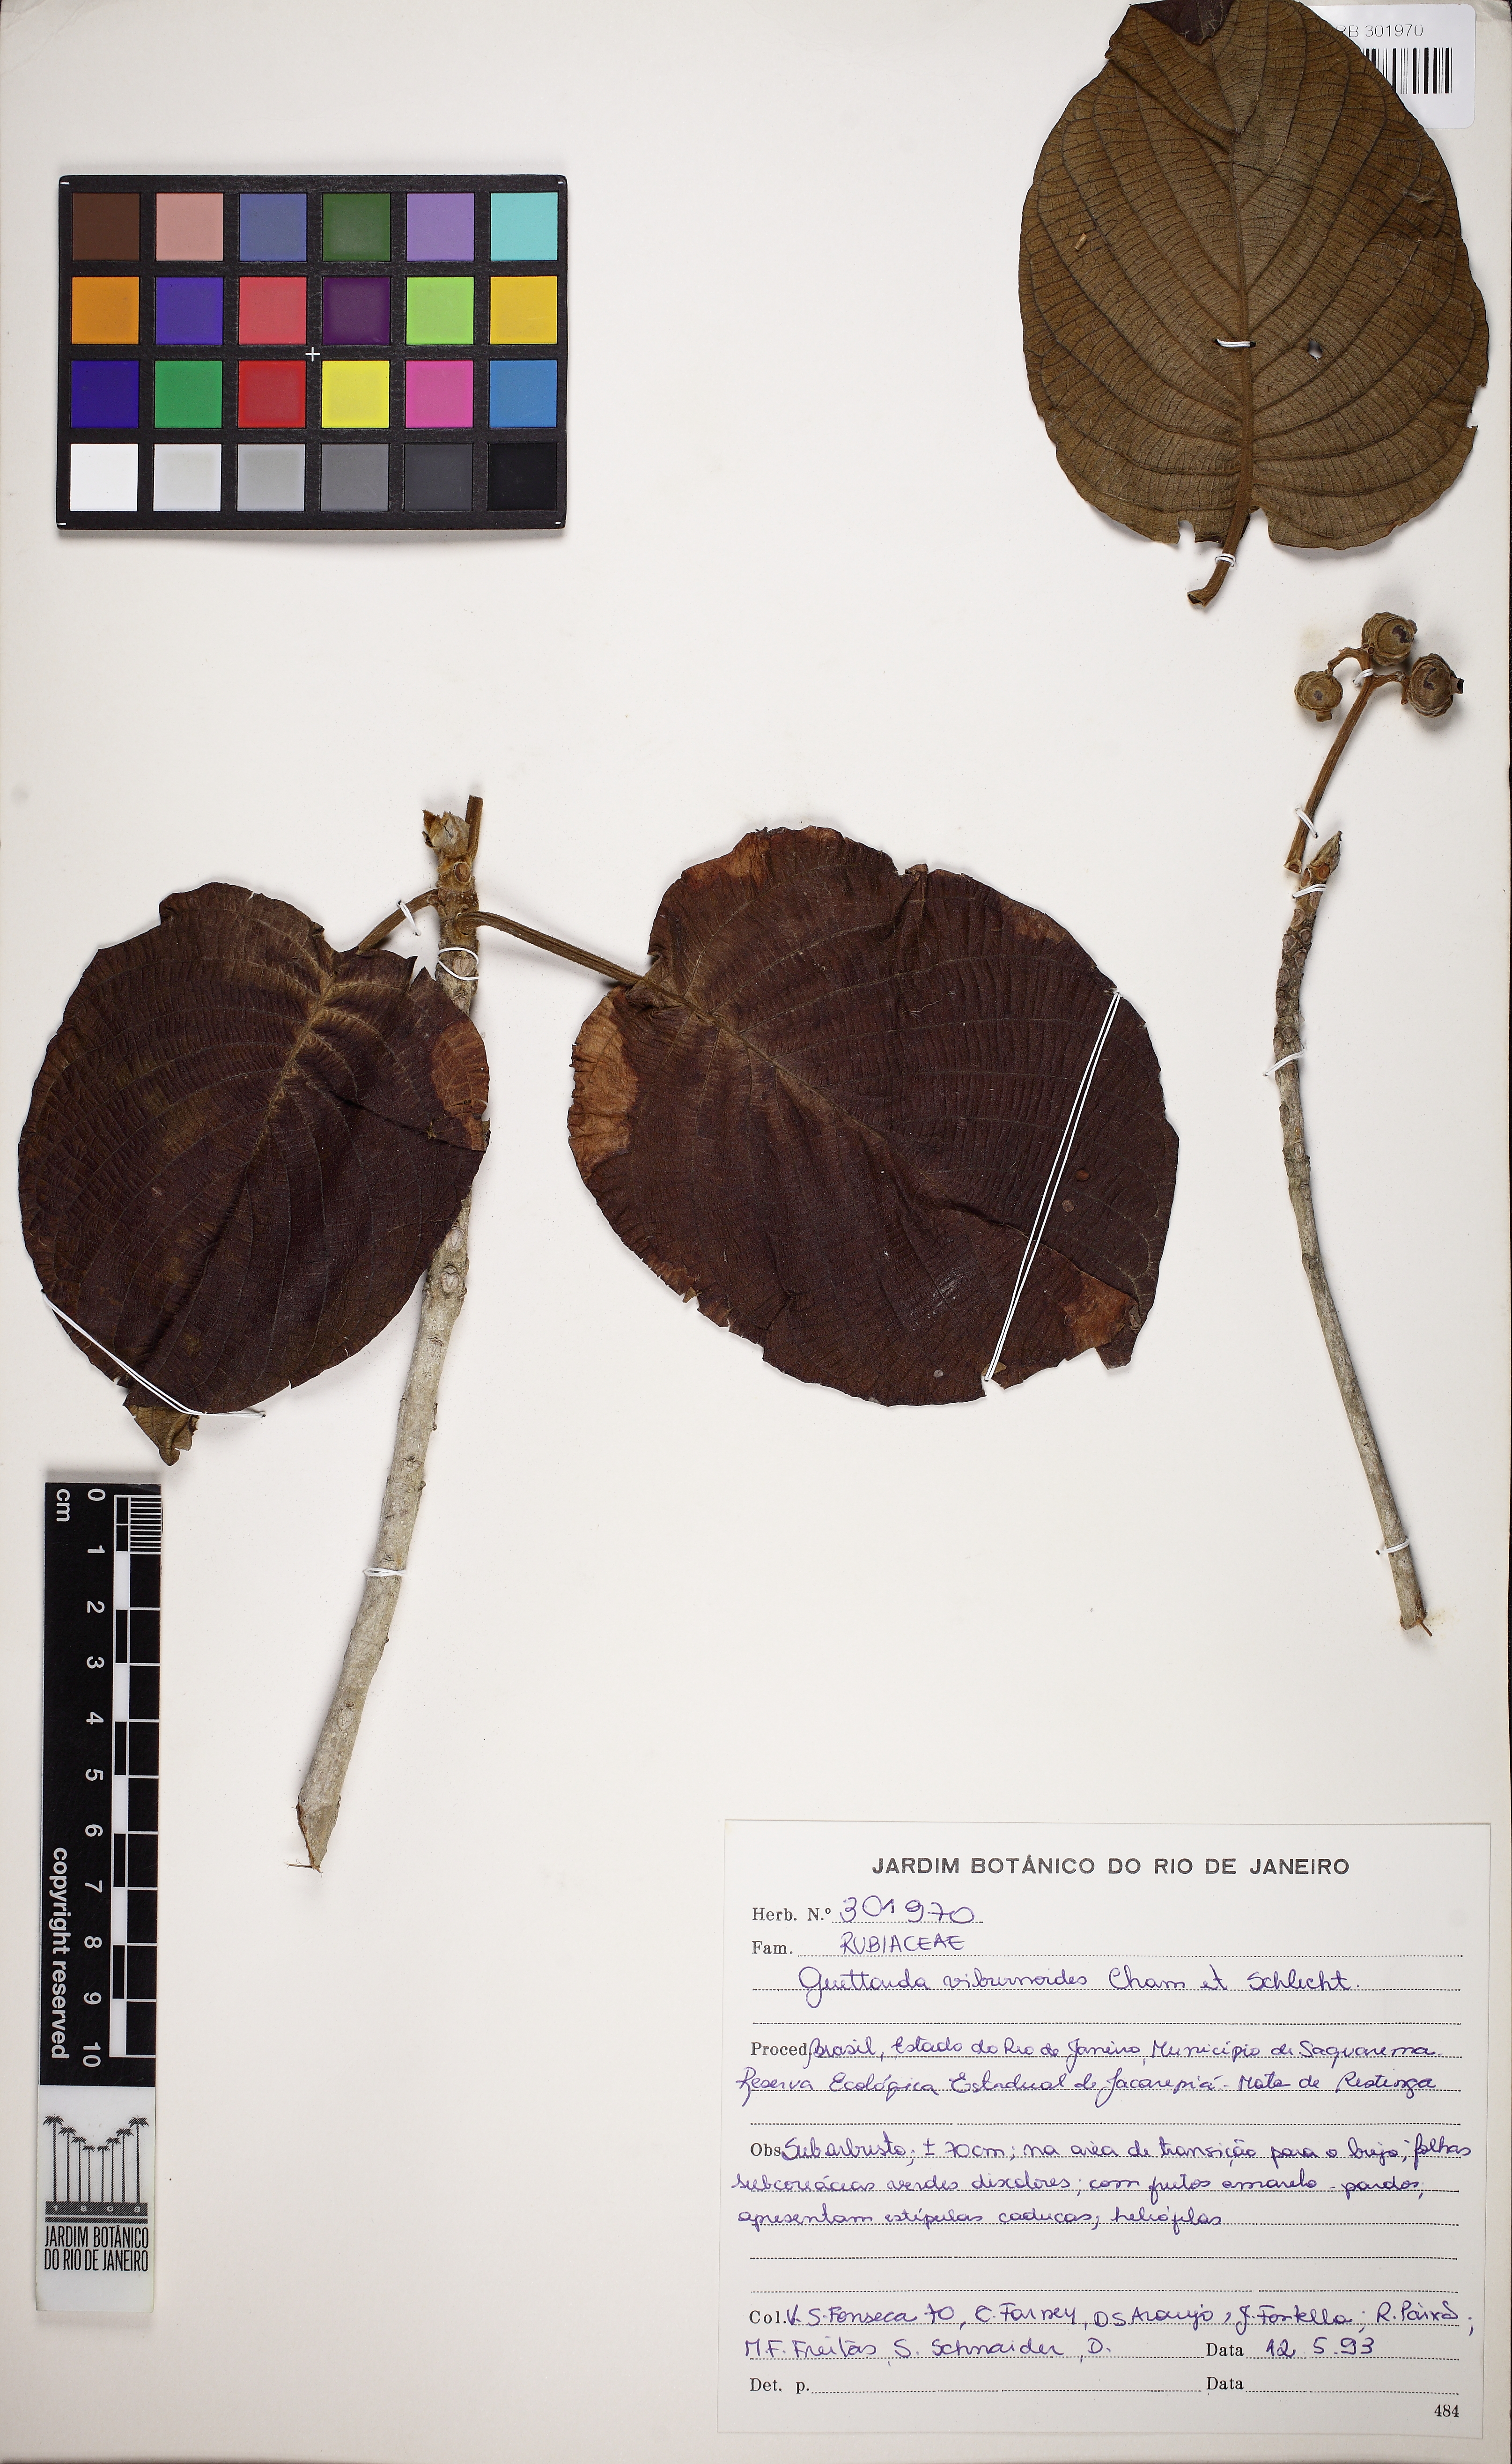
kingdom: Plantae
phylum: Tracheophyta
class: Magnoliopsida
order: Gentianales
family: Rubiaceae
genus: Guettarda
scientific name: Guettarda viburnoides
